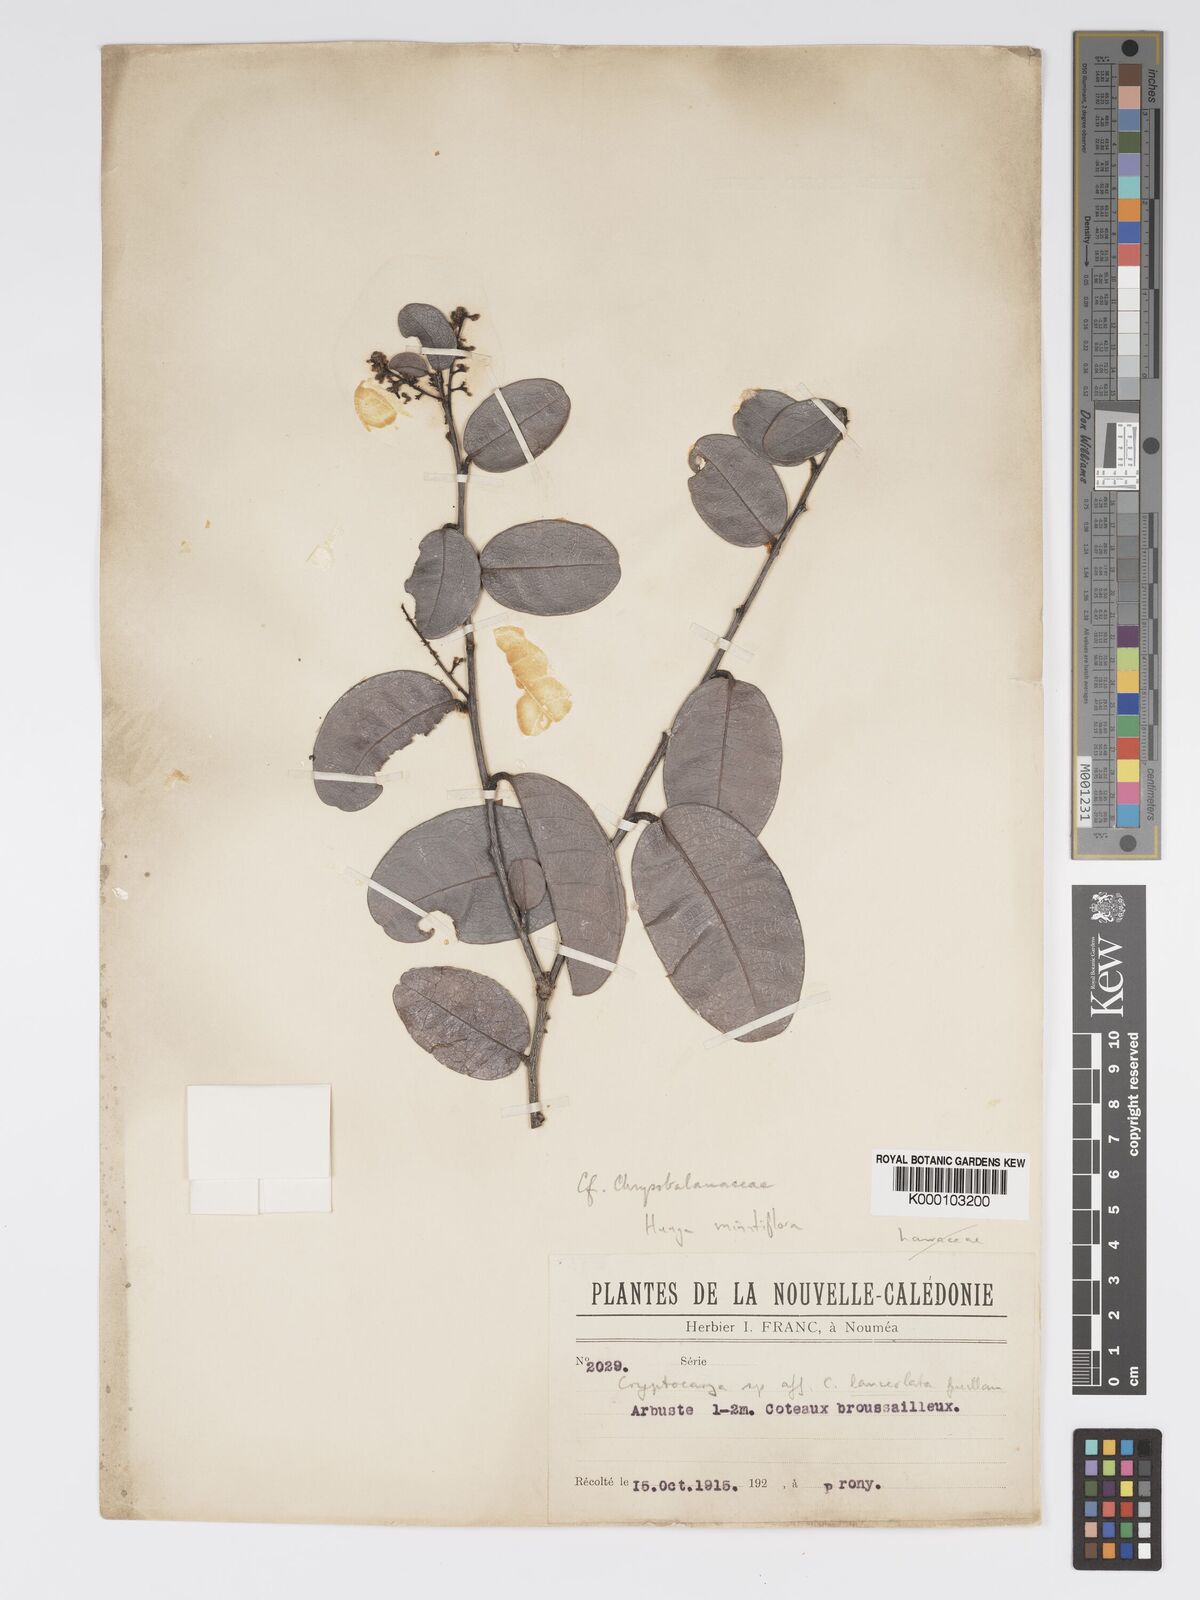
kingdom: Plantae
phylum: Tracheophyta
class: Magnoliopsida
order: Malpighiales
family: Chrysobalanaceae
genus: Hunga
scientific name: Hunga minutiflora
